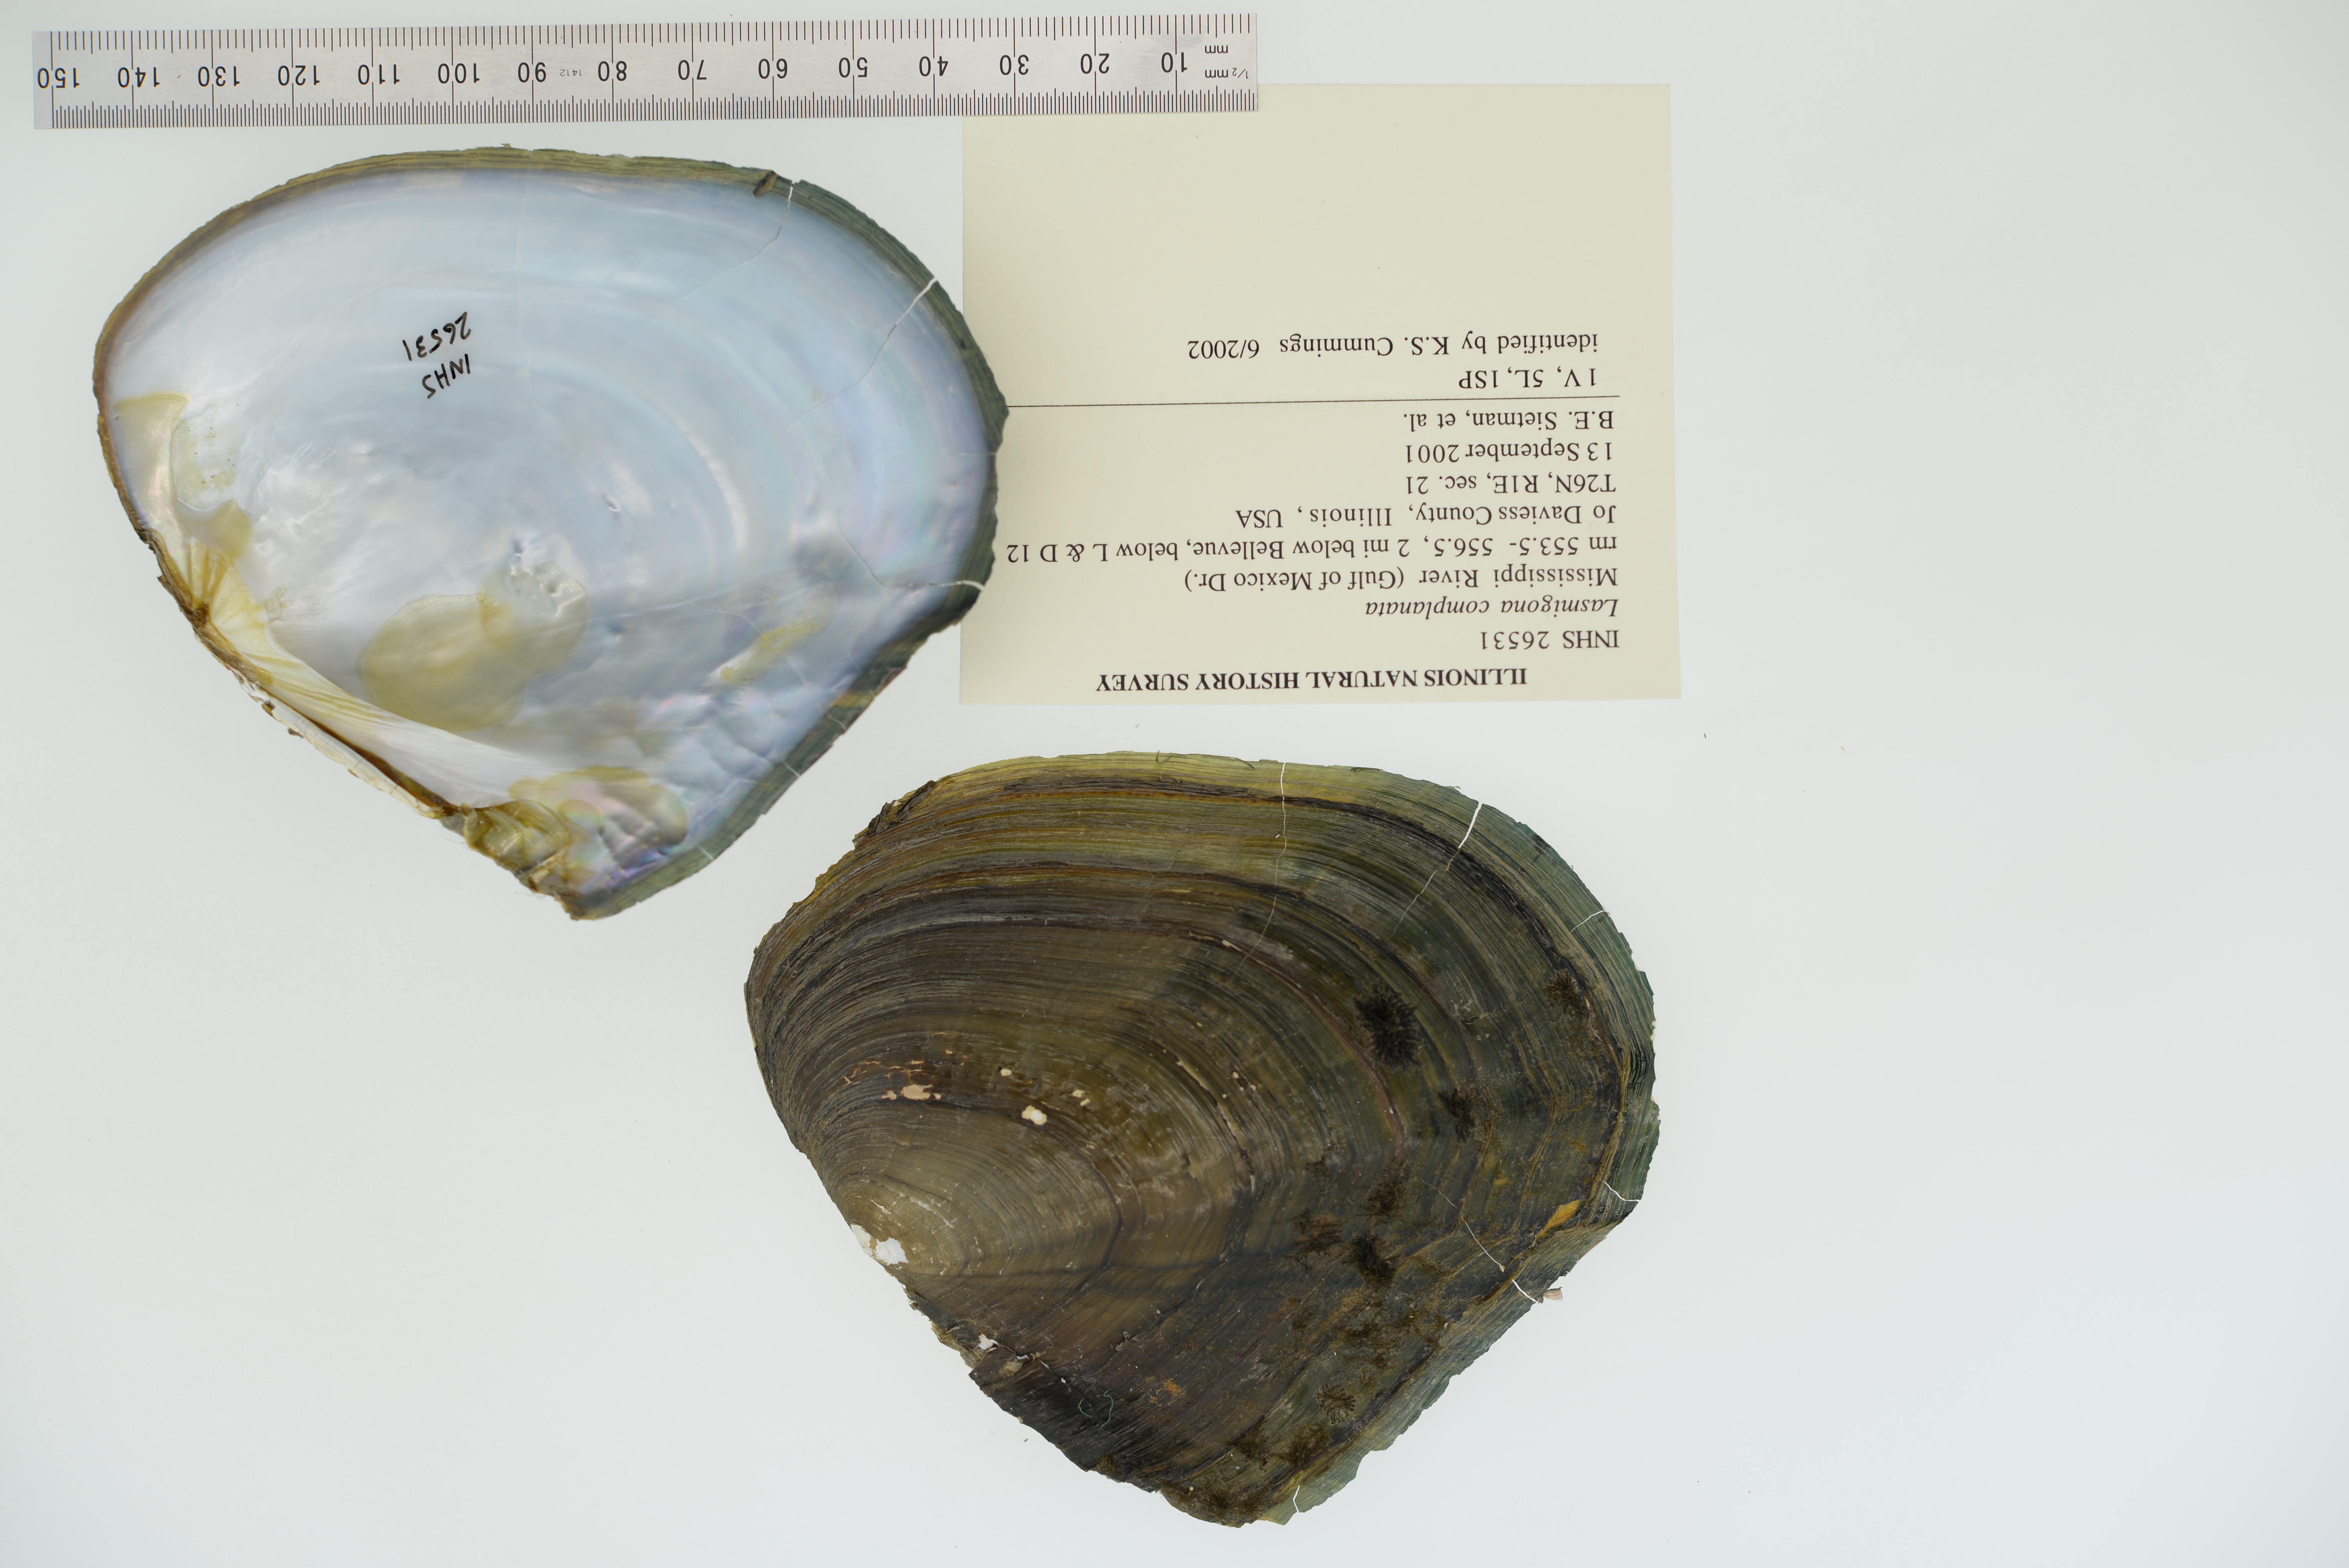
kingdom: Animalia
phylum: Mollusca
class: Bivalvia
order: Unionida
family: Unionidae
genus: Lasmigona
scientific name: Lasmigona complanata
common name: White heelsplitter
